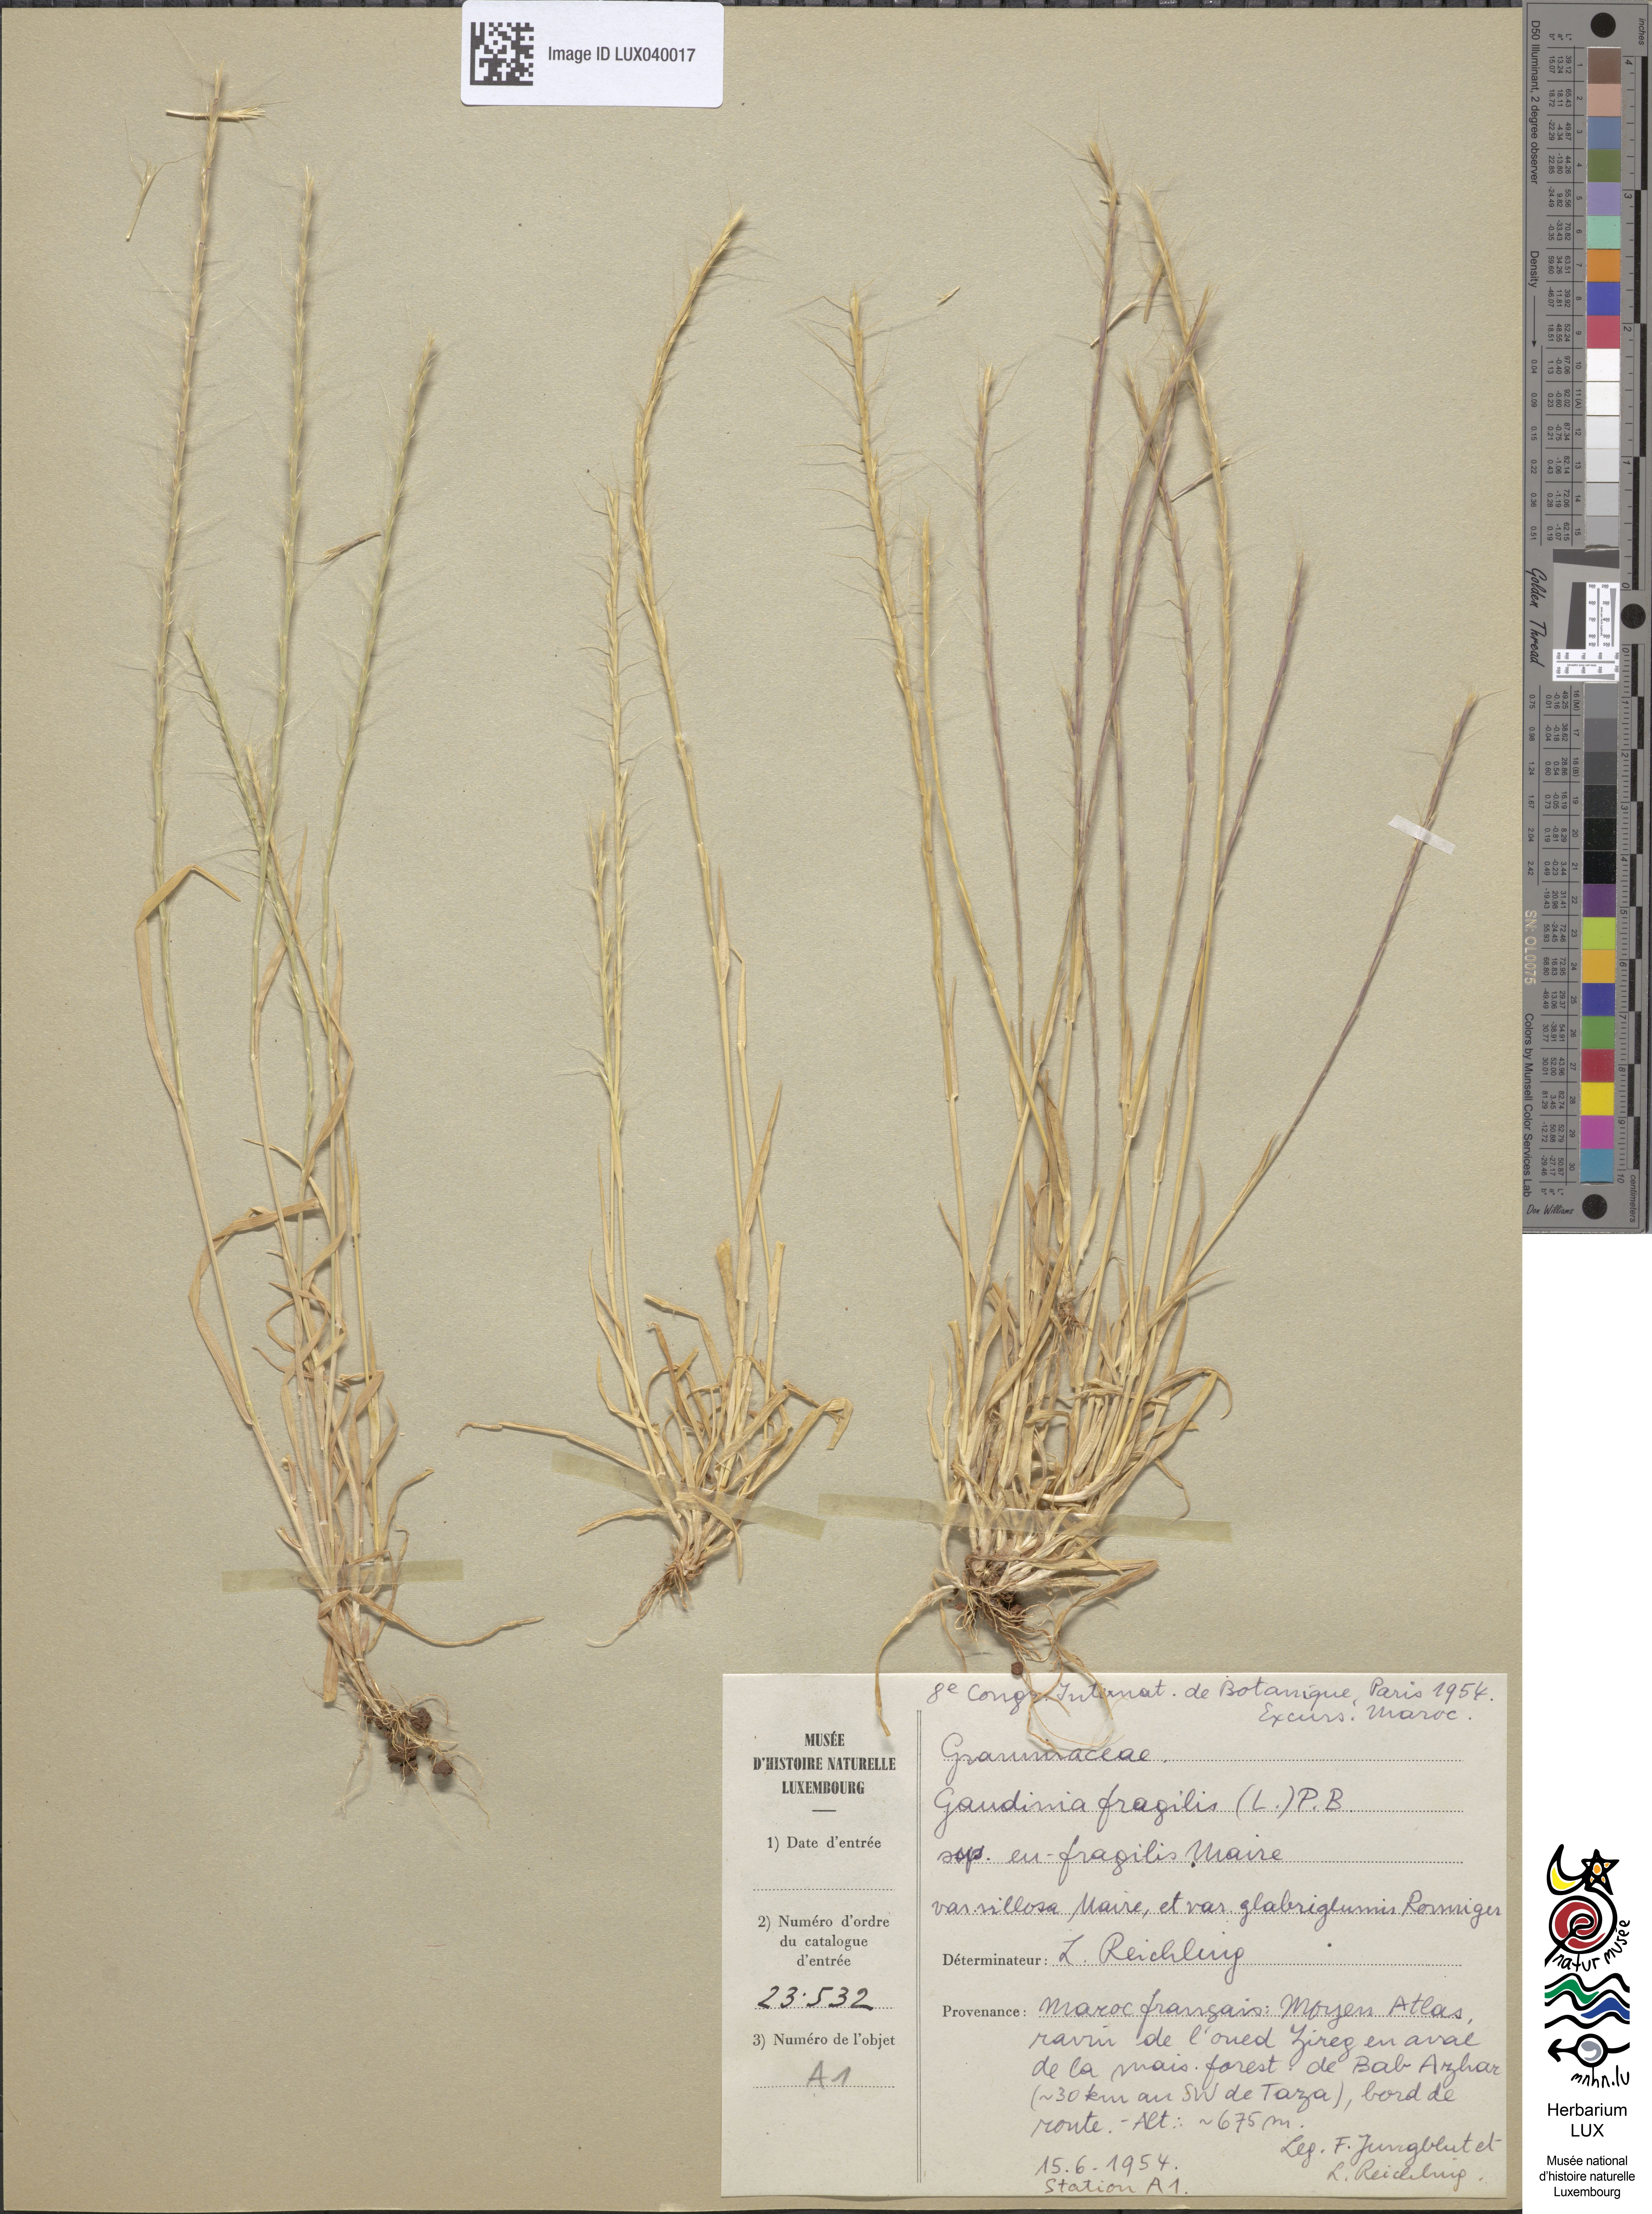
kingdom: Plantae
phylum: Tracheophyta
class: Liliopsida
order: Poales
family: Poaceae
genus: Gaudinia
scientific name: Gaudinia fragilis
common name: French oat-grass
